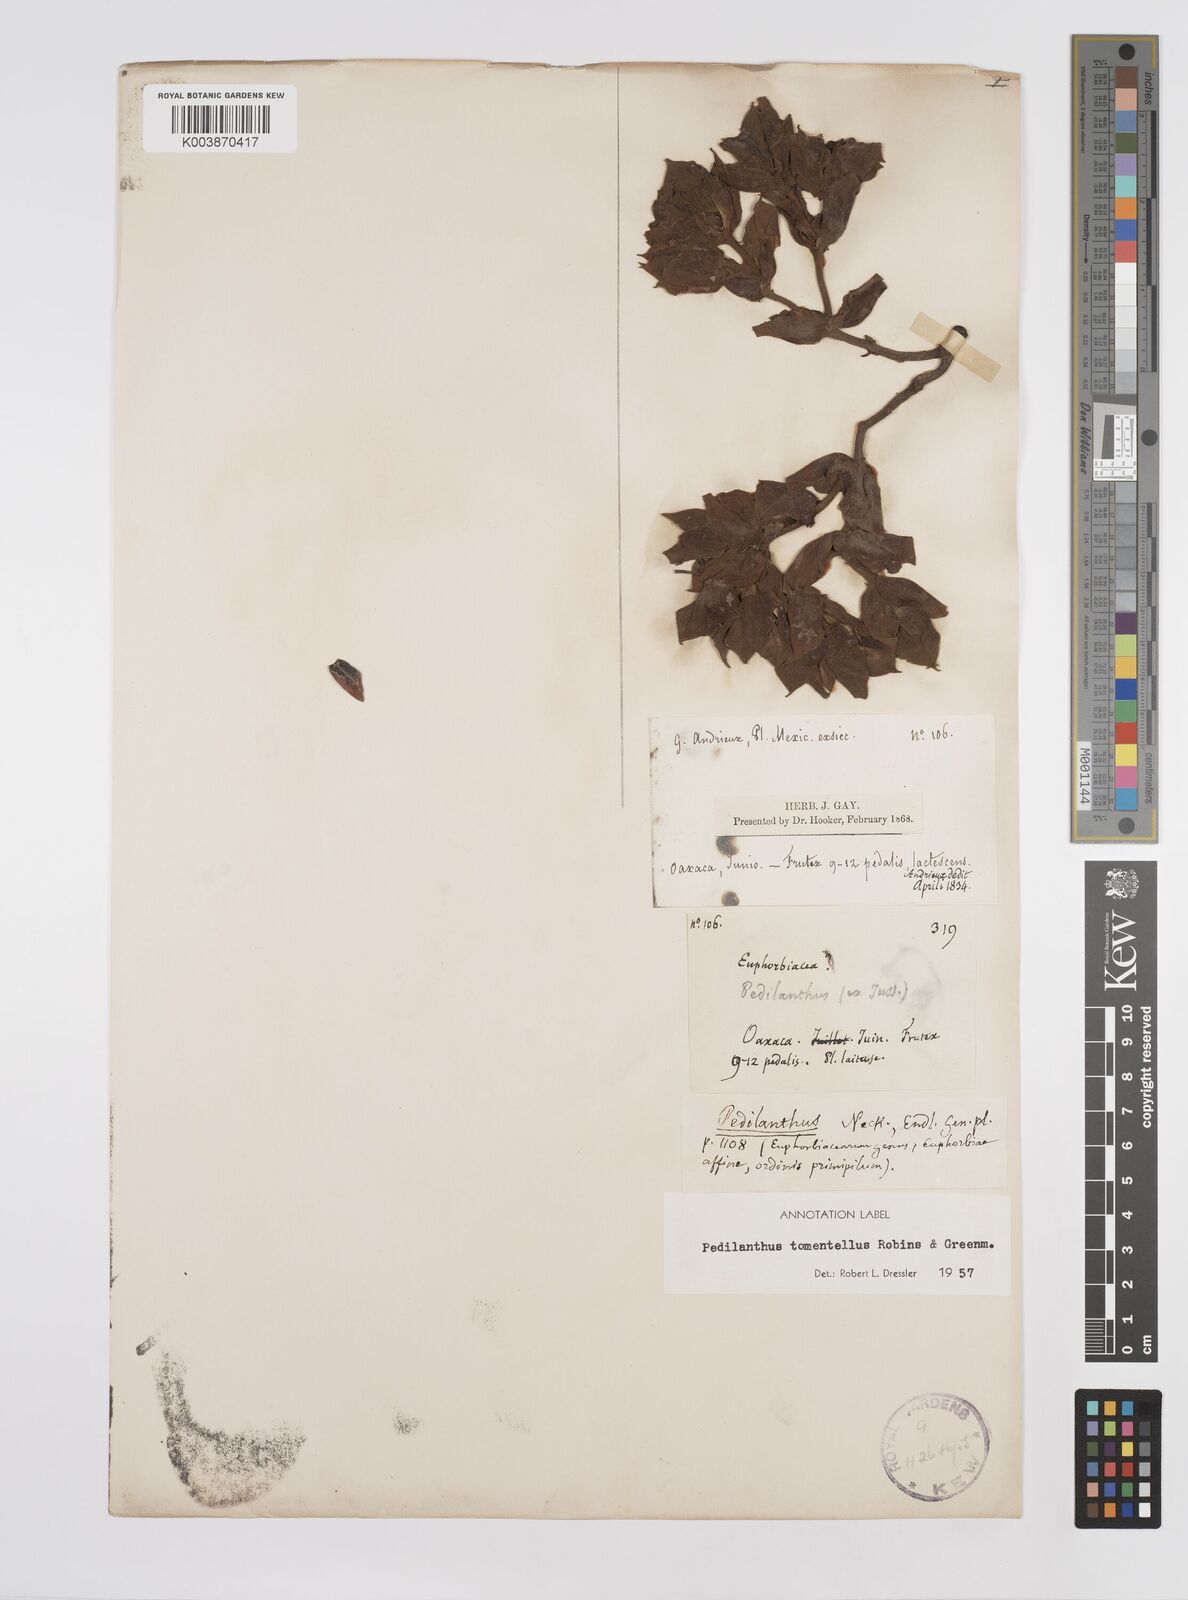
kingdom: Plantae
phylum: Tracheophyta
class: Magnoliopsida
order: Malpighiales
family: Euphorbiaceae
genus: Pedilanthus
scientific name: Pedilanthus
